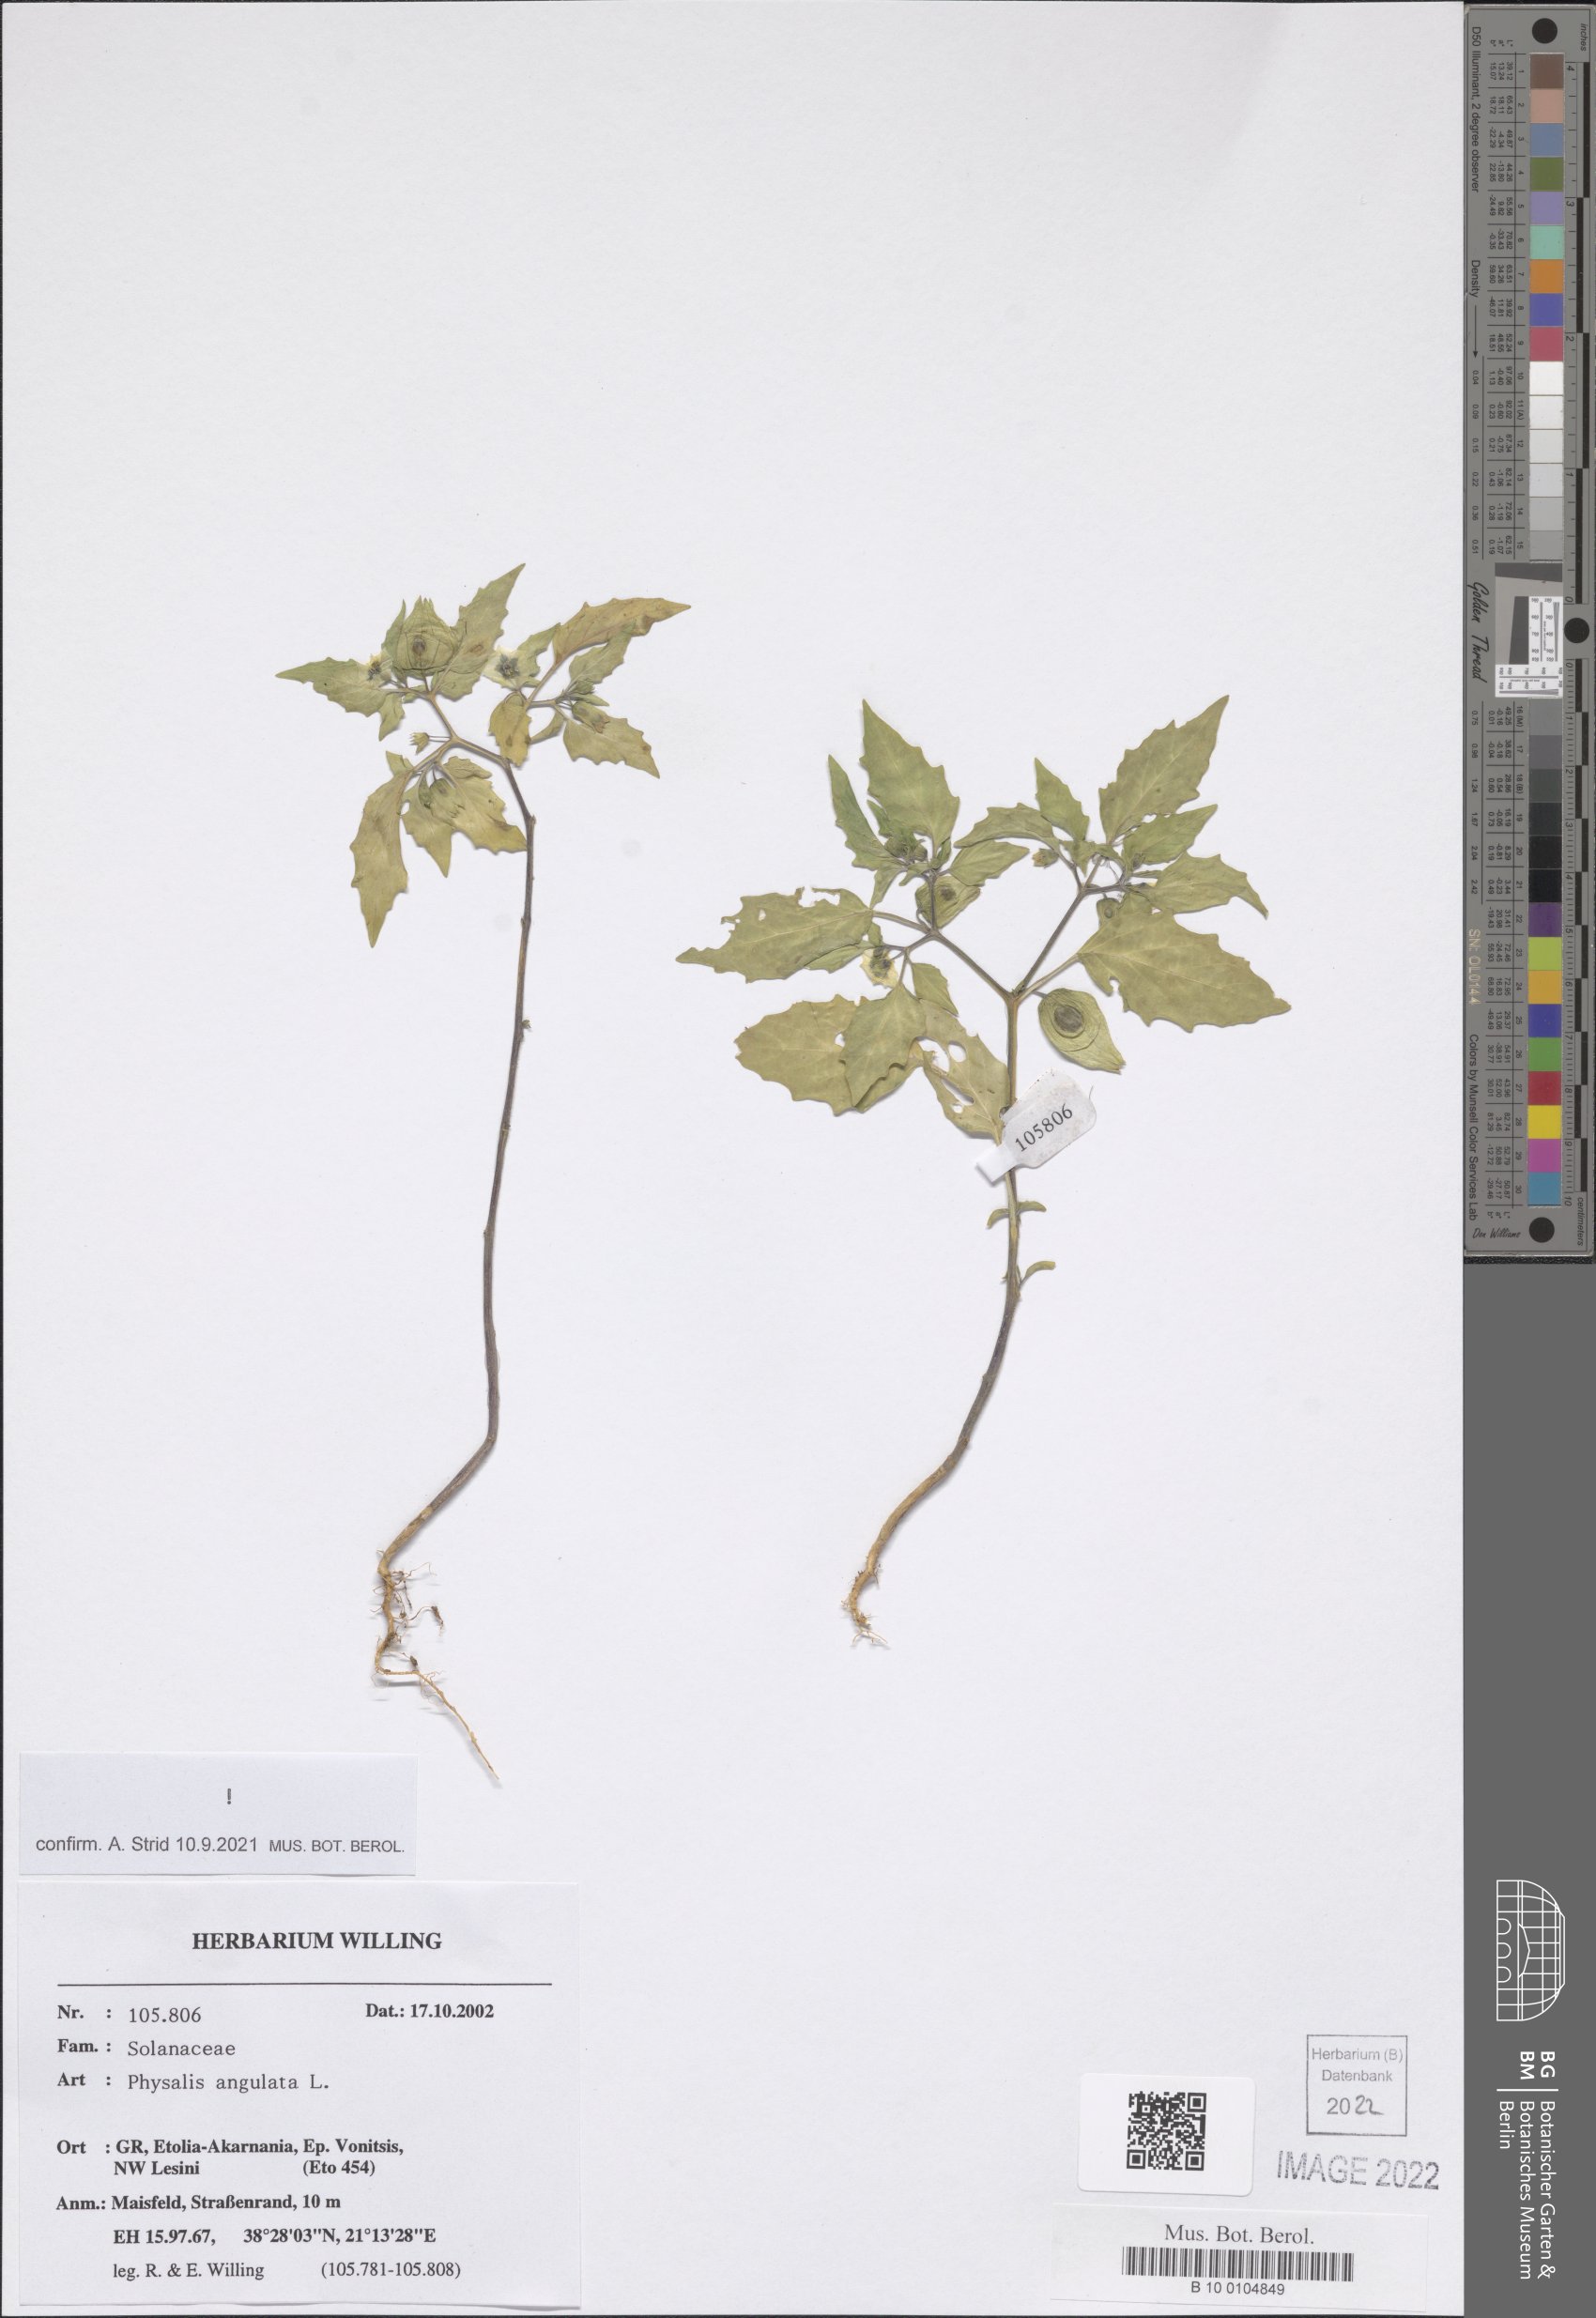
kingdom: Plantae
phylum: Tracheophyta
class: Magnoliopsida
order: Solanales
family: Solanaceae
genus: Physalis
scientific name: Physalis angulata
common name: Angular winter-cherry
